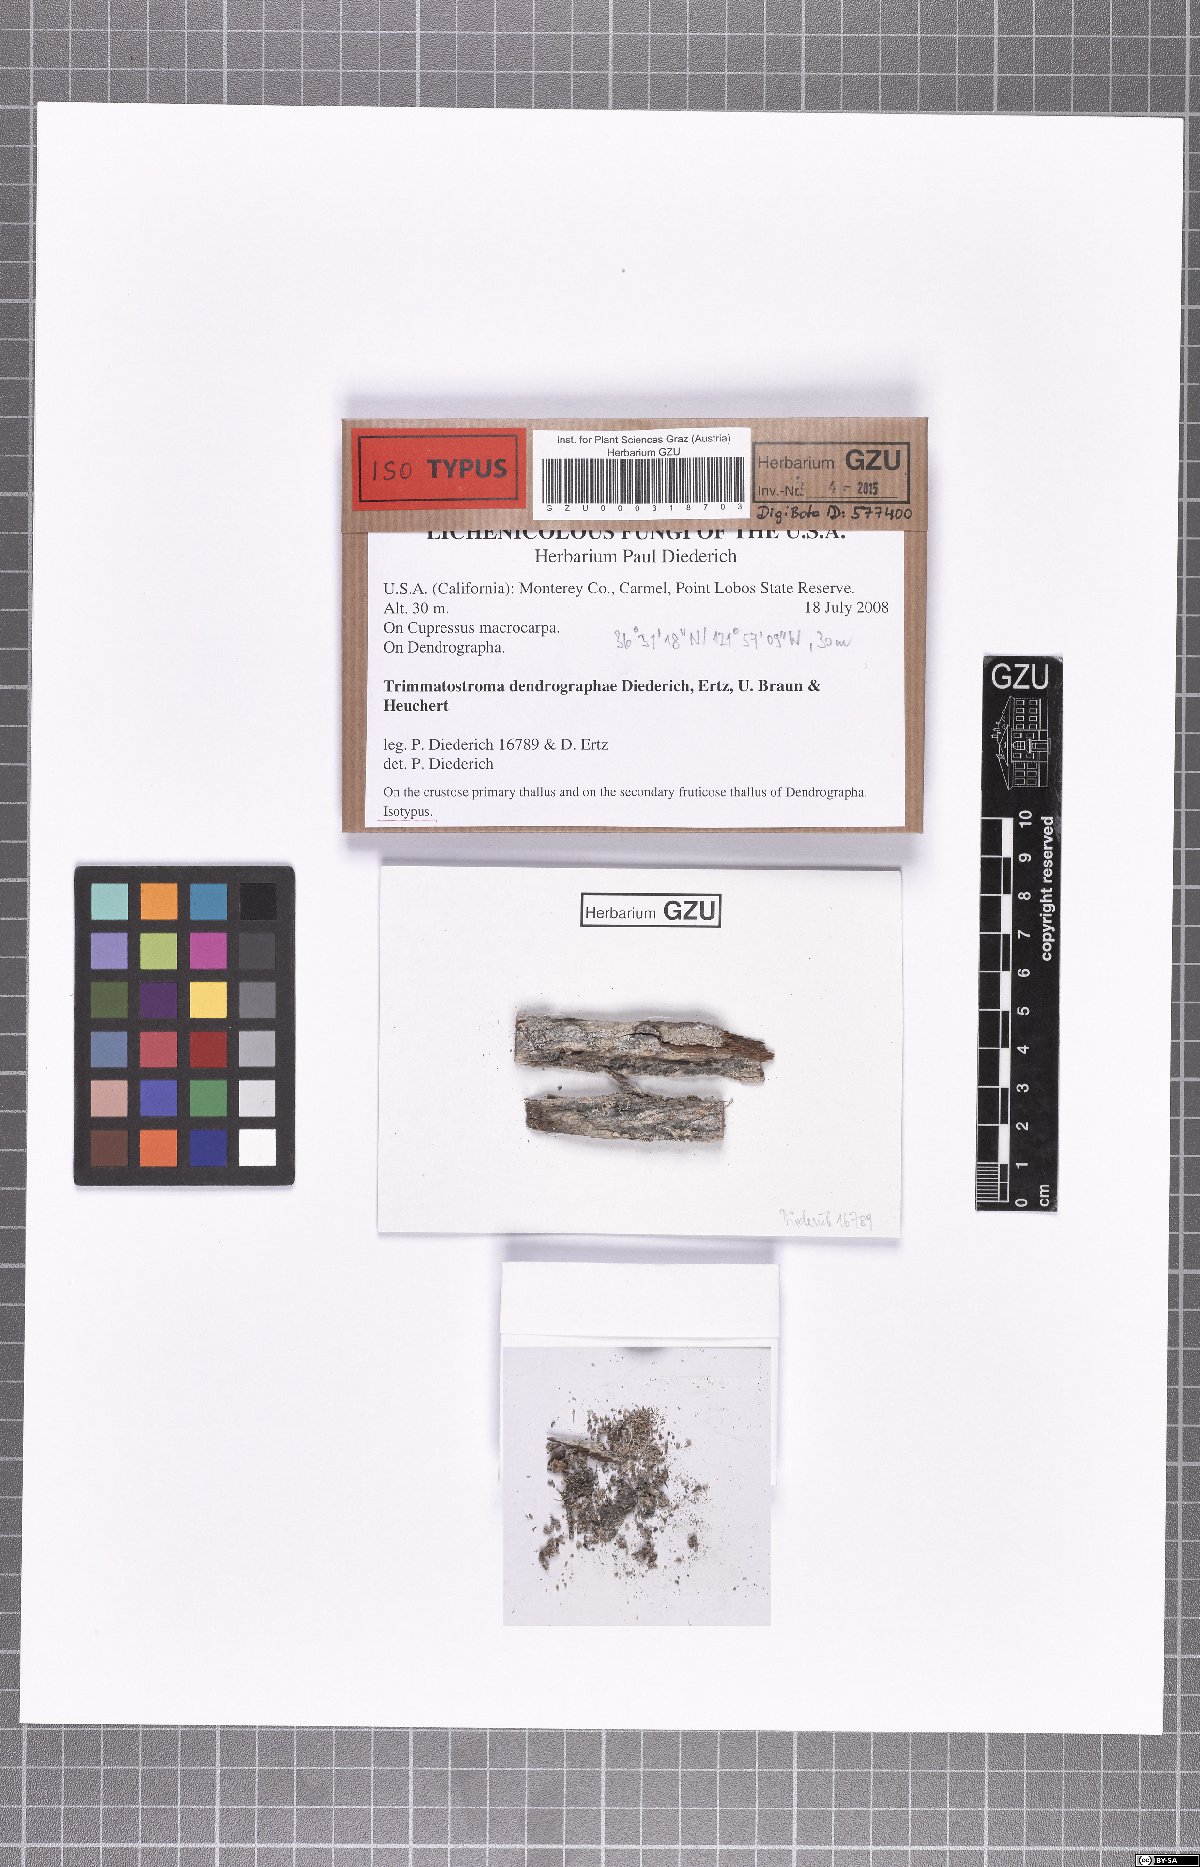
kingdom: Fungi
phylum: Ascomycota
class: Leotiomycetes
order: Helotiales
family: Mollisiaceae
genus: Trimmatostroma
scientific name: Trimmatostroma dendrographae
